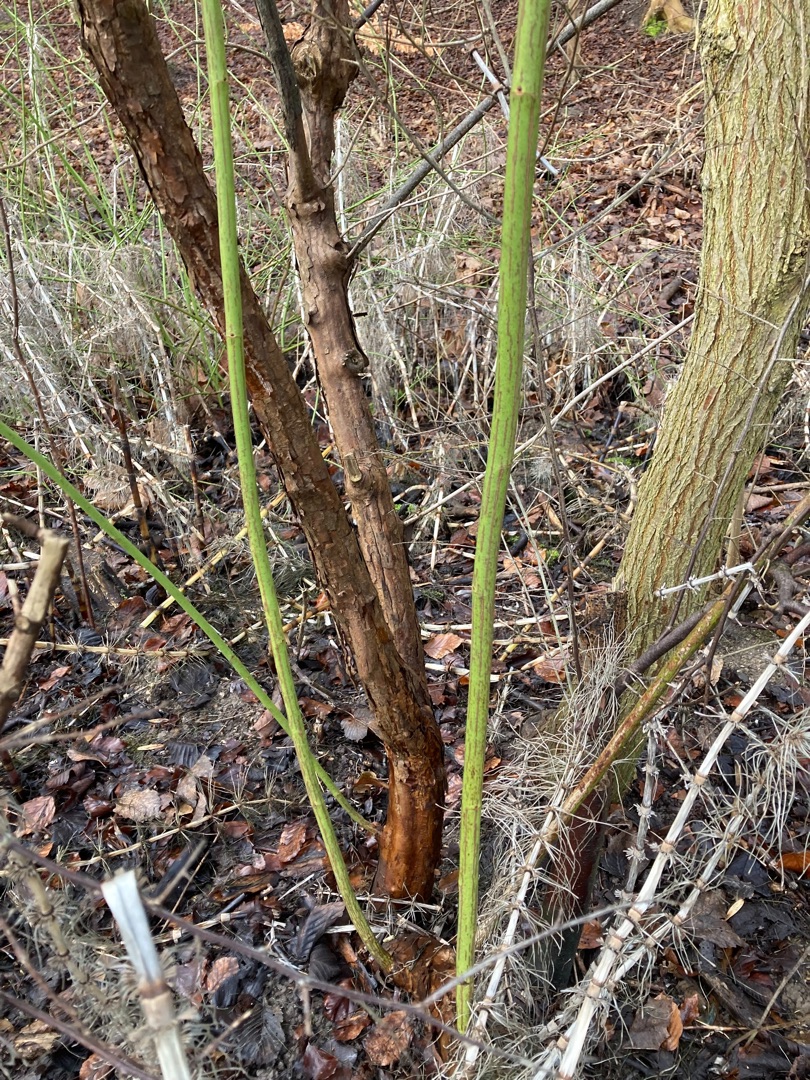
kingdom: Plantae
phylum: Tracheophyta
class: Magnoliopsida
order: Rosales
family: Rosaceae
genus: Rosa
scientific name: Rosa multiflora
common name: Mangeblomstret rose
